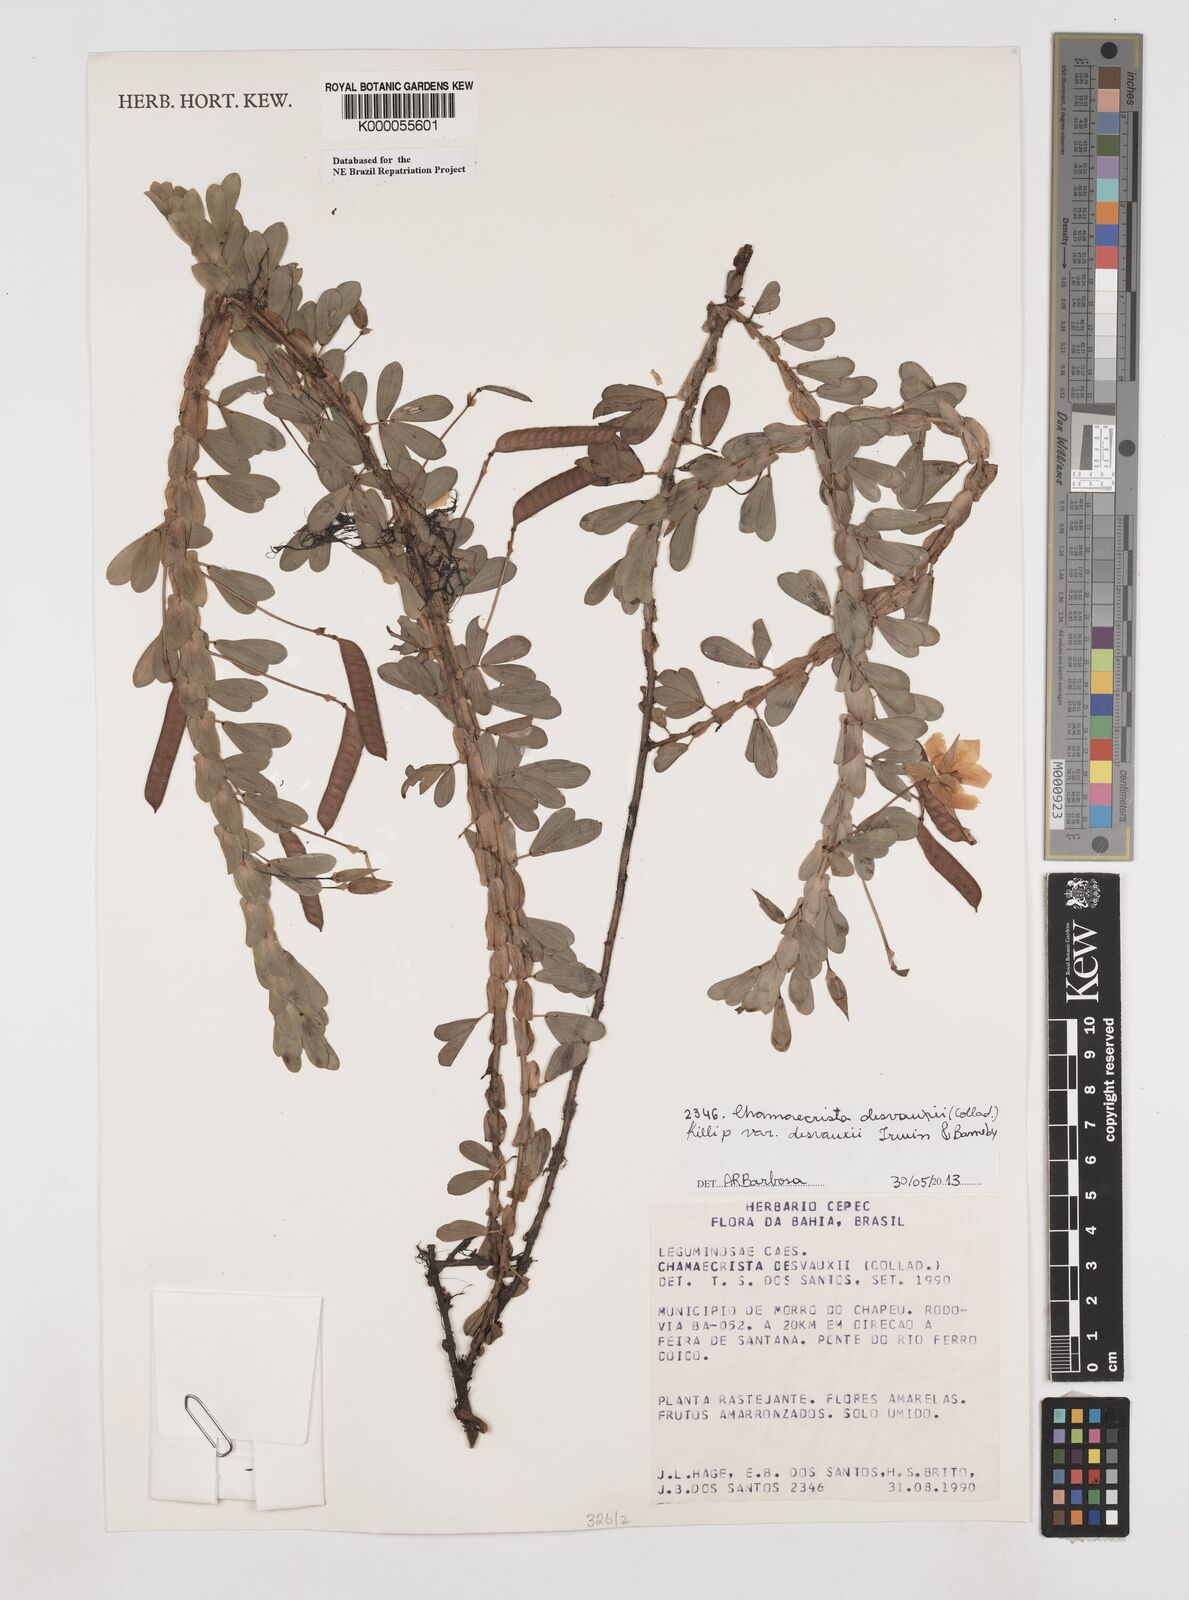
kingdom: Plantae
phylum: Tracheophyta
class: Magnoliopsida
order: Fabales
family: Fabaceae
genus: Chamaecrista
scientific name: Chamaecrista desvauxii
